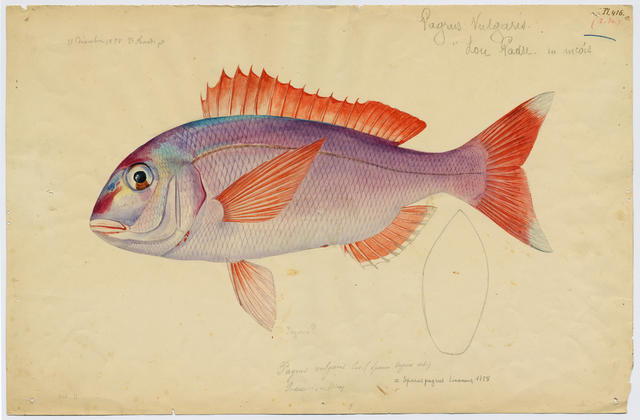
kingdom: Animalia
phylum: Chordata
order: Perciformes
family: Sparidae
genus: Pagrus
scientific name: Pagrus pagrus
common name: Red porgy
